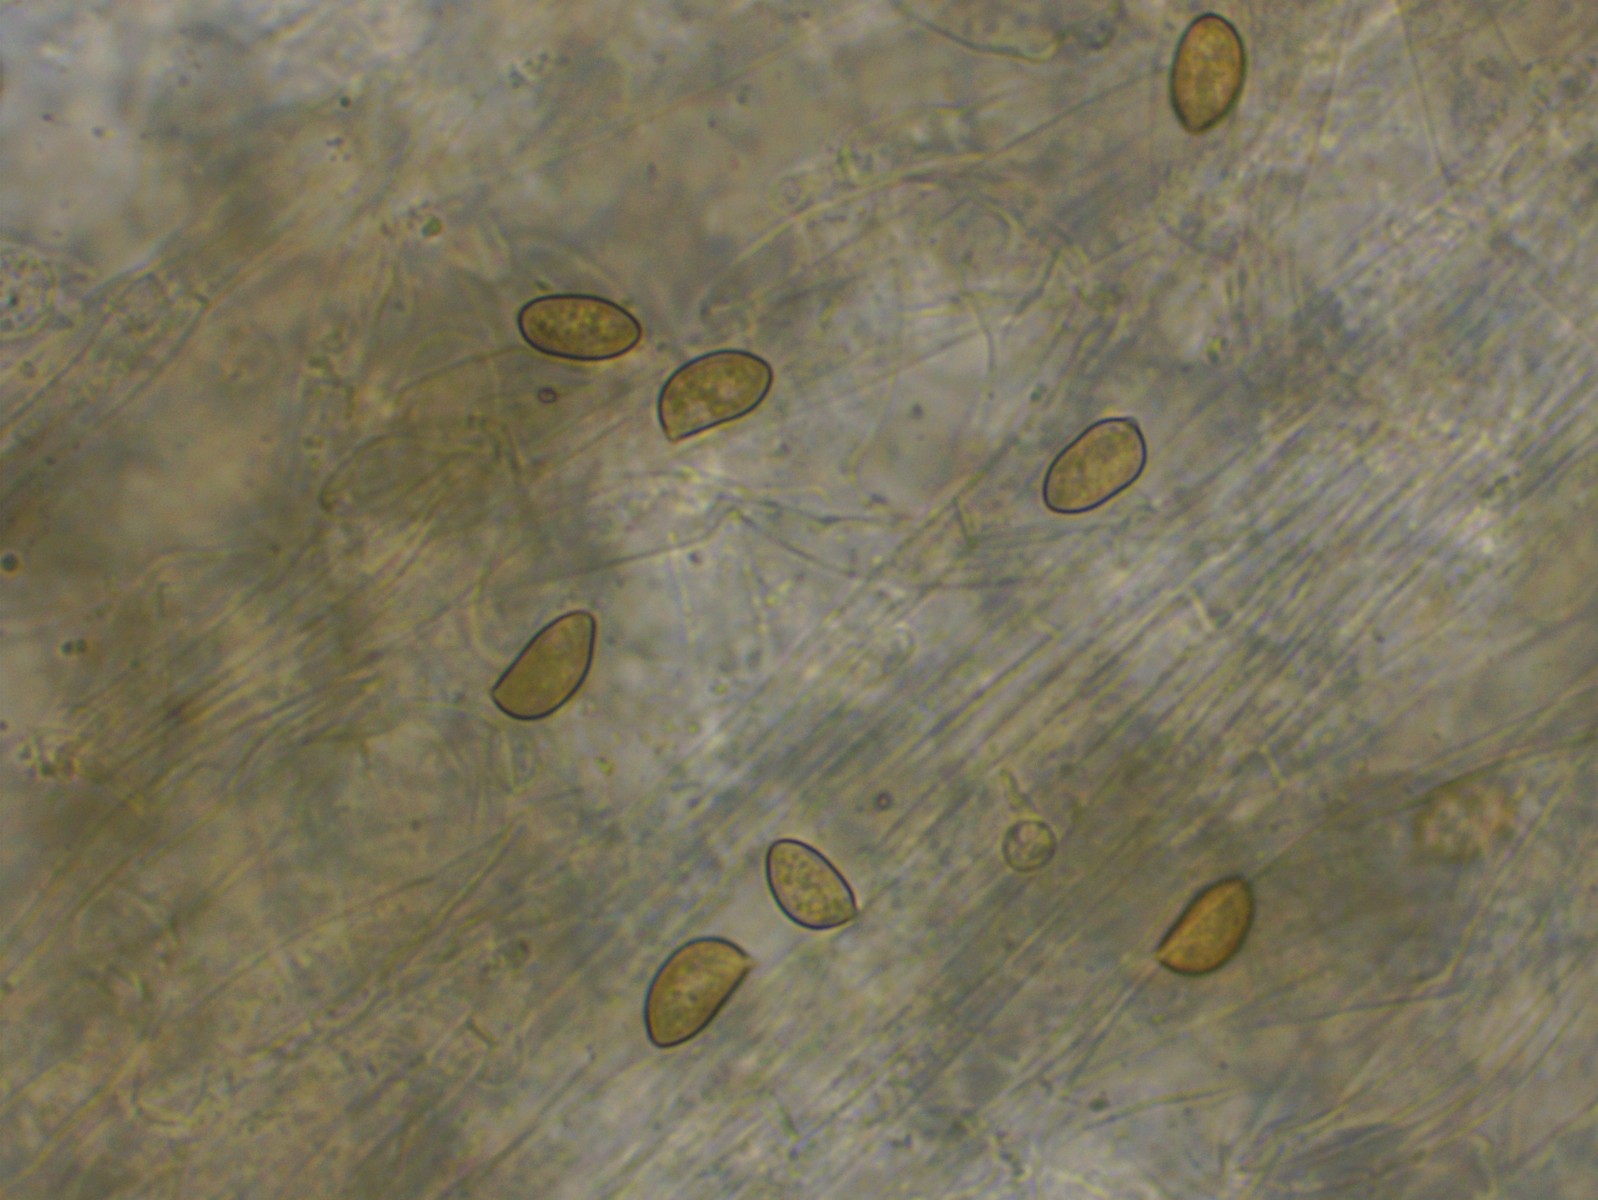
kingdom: Fungi
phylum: Basidiomycota
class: Agaricomycetes
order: Agaricales
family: Inocybaceae
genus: Inocybe
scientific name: Inocybe sindonia
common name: bleg trævlhat
